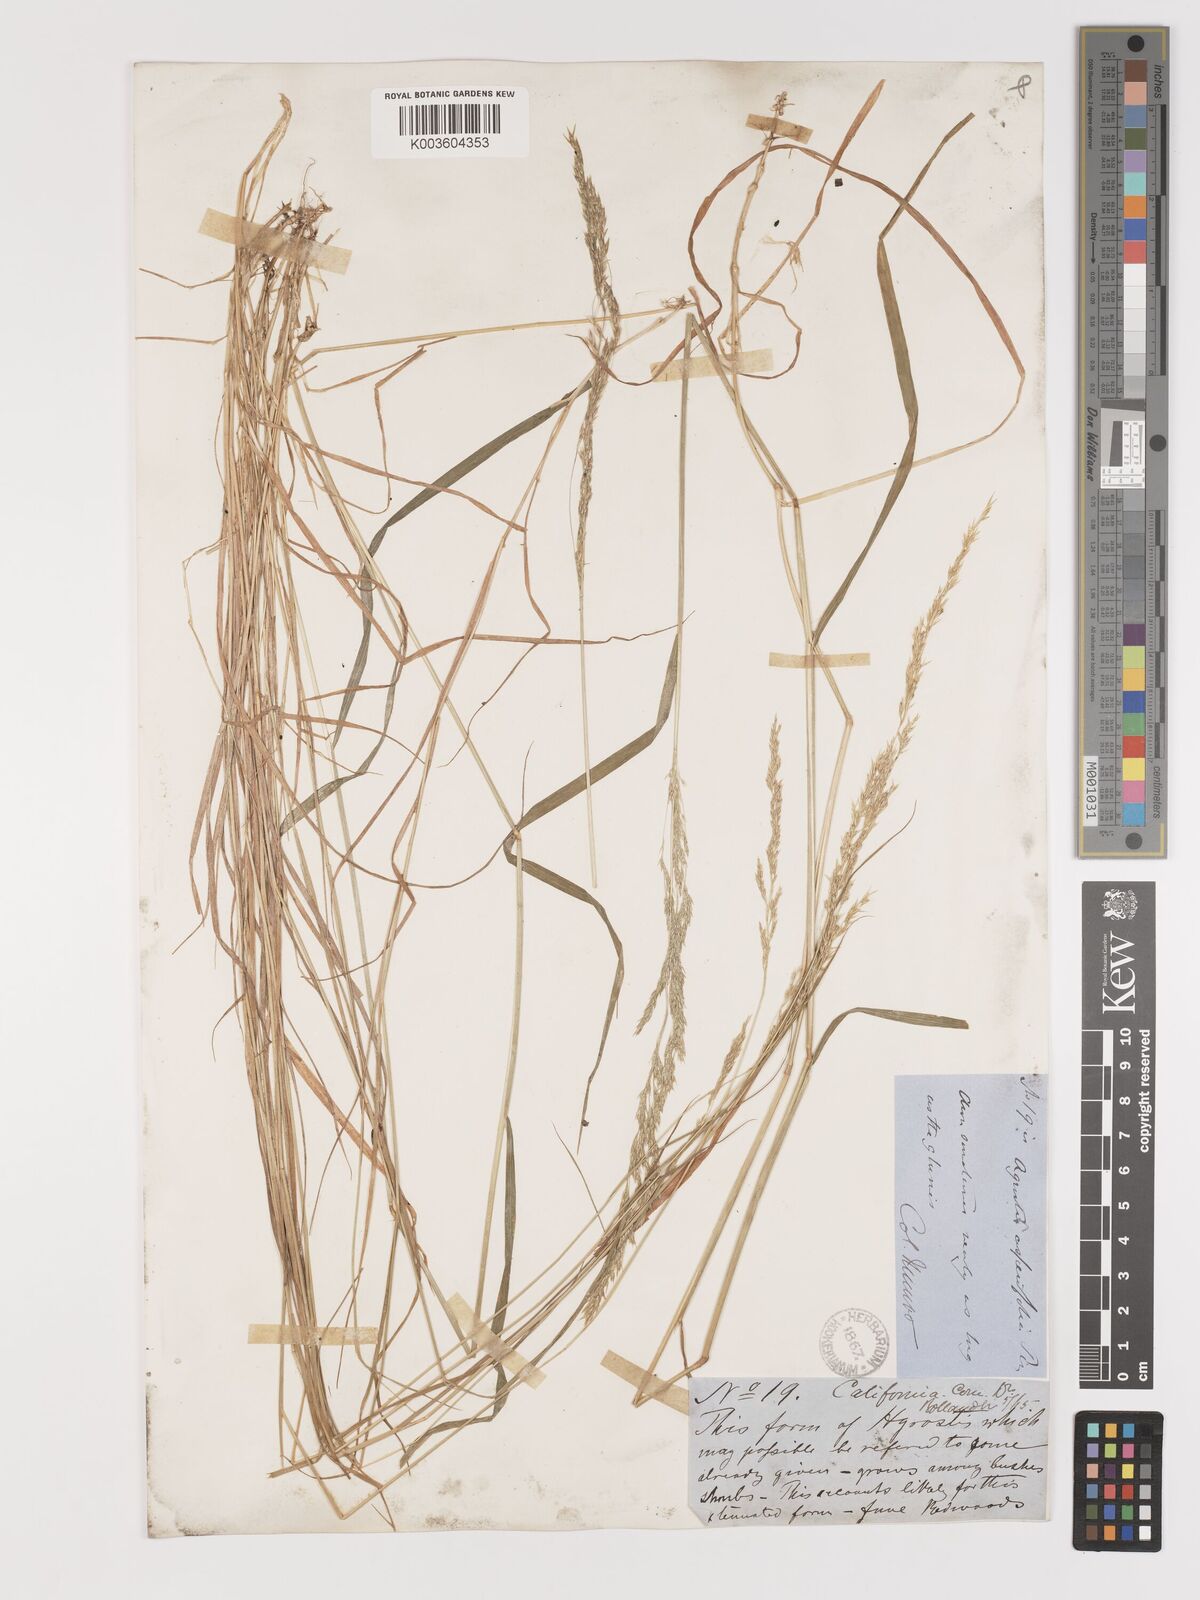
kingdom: Plantae
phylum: Tracheophyta
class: Liliopsida
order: Poales
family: Poaceae
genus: Agrostis
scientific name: Agrostis exarata
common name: Spike bent
